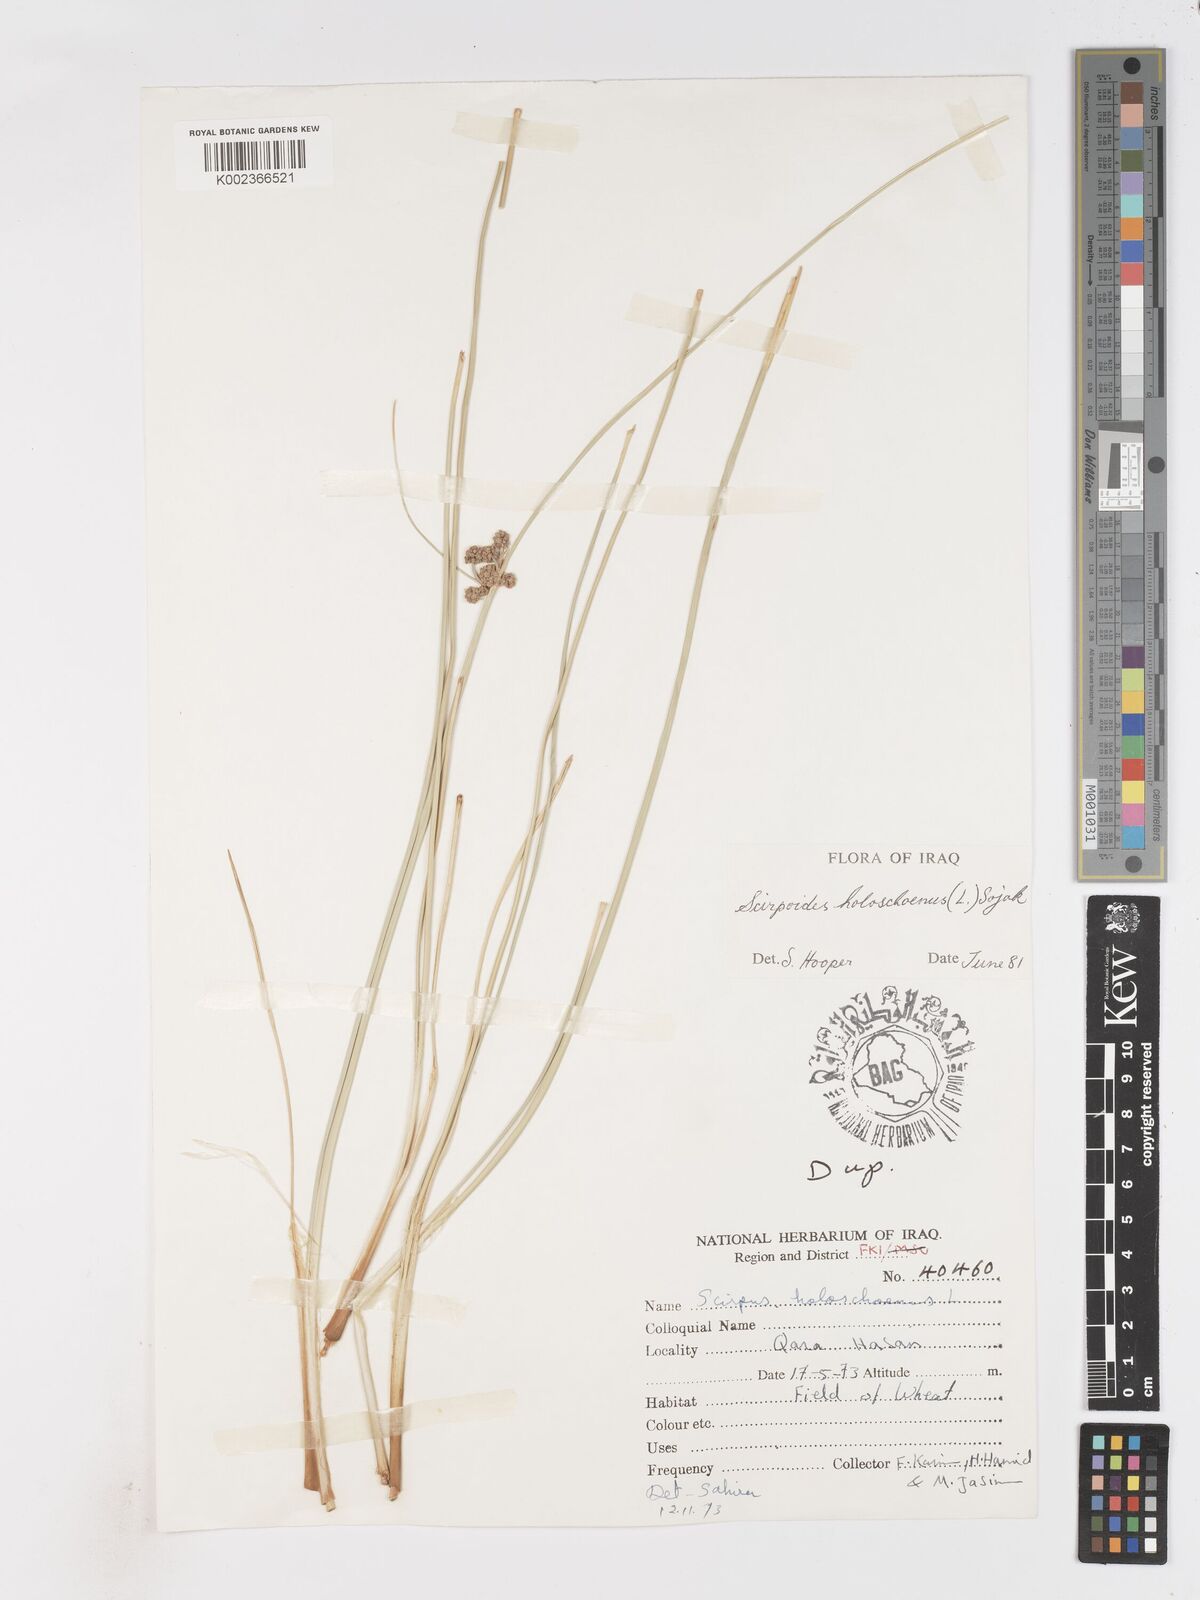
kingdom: Plantae
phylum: Tracheophyta
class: Liliopsida
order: Poales
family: Cyperaceae
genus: Scirpoides
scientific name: Scirpoides holoschoenus
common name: Round-headed club-rush
